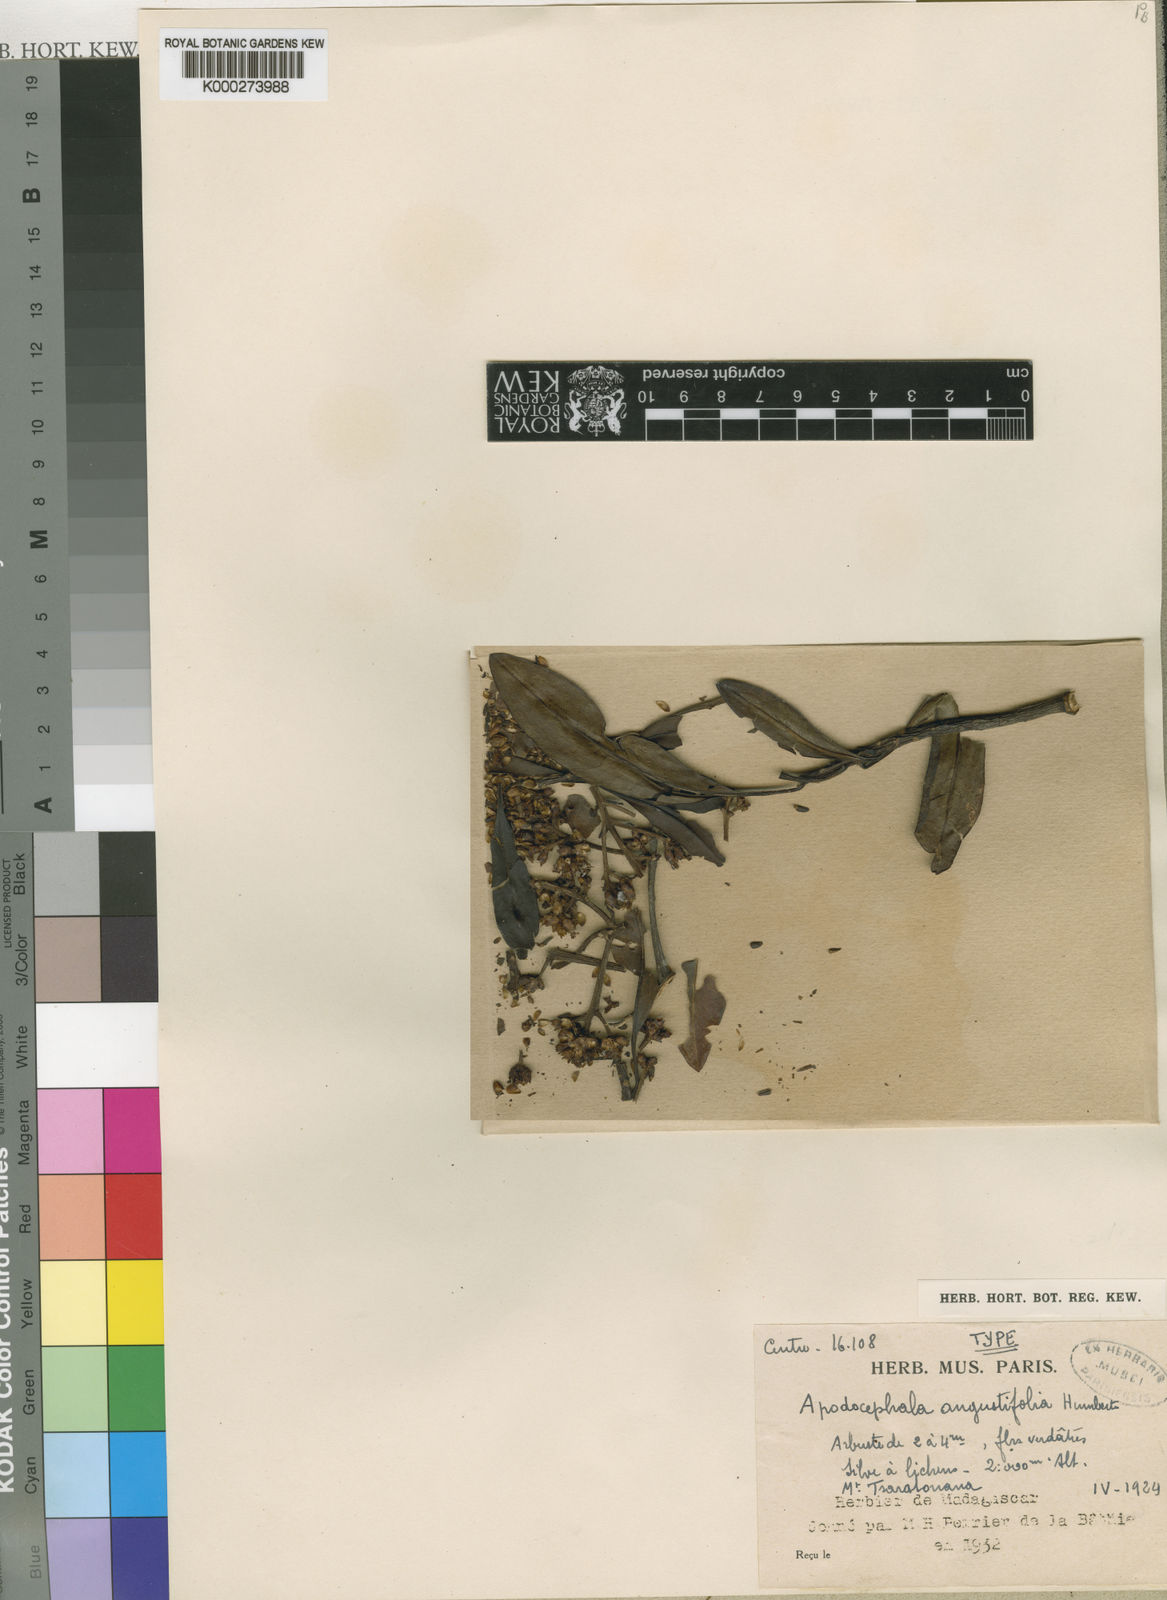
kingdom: Plantae
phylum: Tracheophyta
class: Magnoliopsida
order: Asterales
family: Asteraceae
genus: Apodocephala
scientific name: Apodocephala angustifolia
